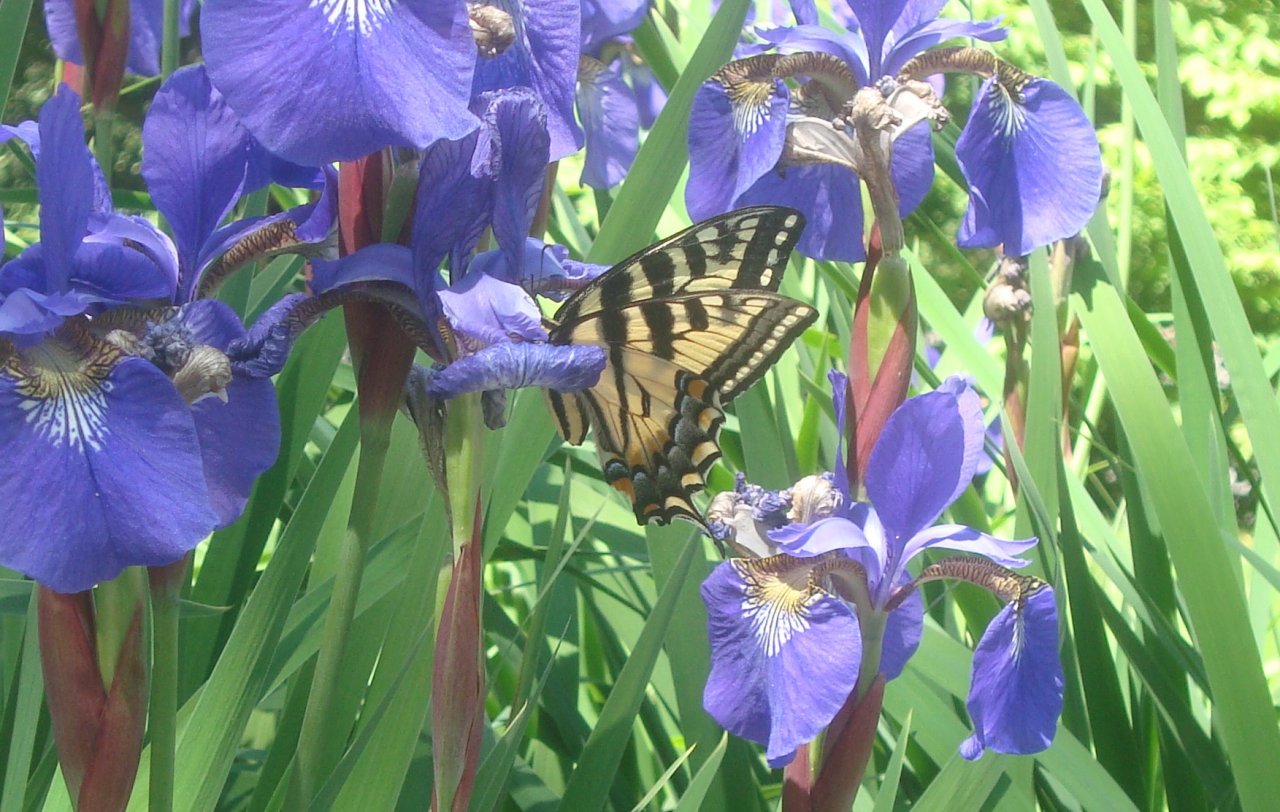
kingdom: Animalia
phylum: Arthropoda
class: Insecta
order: Lepidoptera
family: Papilionidae
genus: Pterourus
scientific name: Pterourus canadensis
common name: Canadian Tiger Swallowtail
